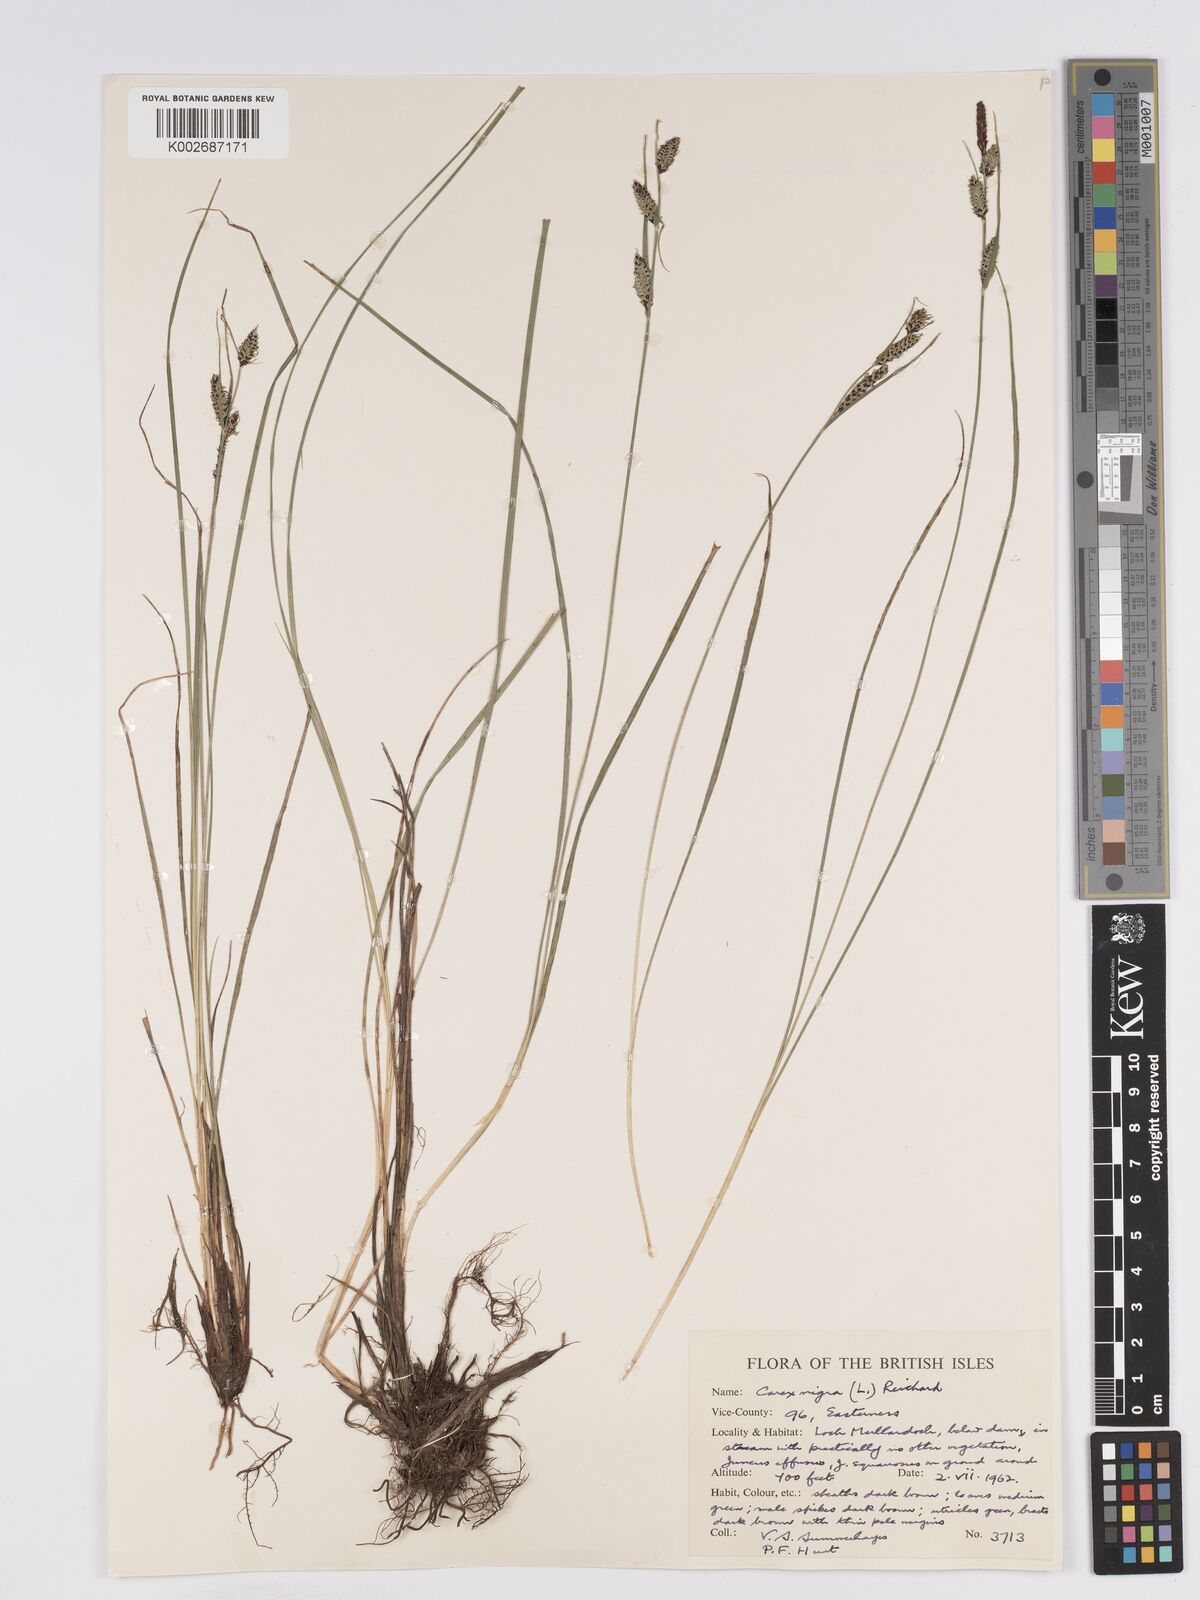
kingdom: Plantae
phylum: Tracheophyta
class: Liliopsida
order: Poales
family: Cyperaceae
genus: Carex
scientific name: Carex nigra
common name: Common sedge
